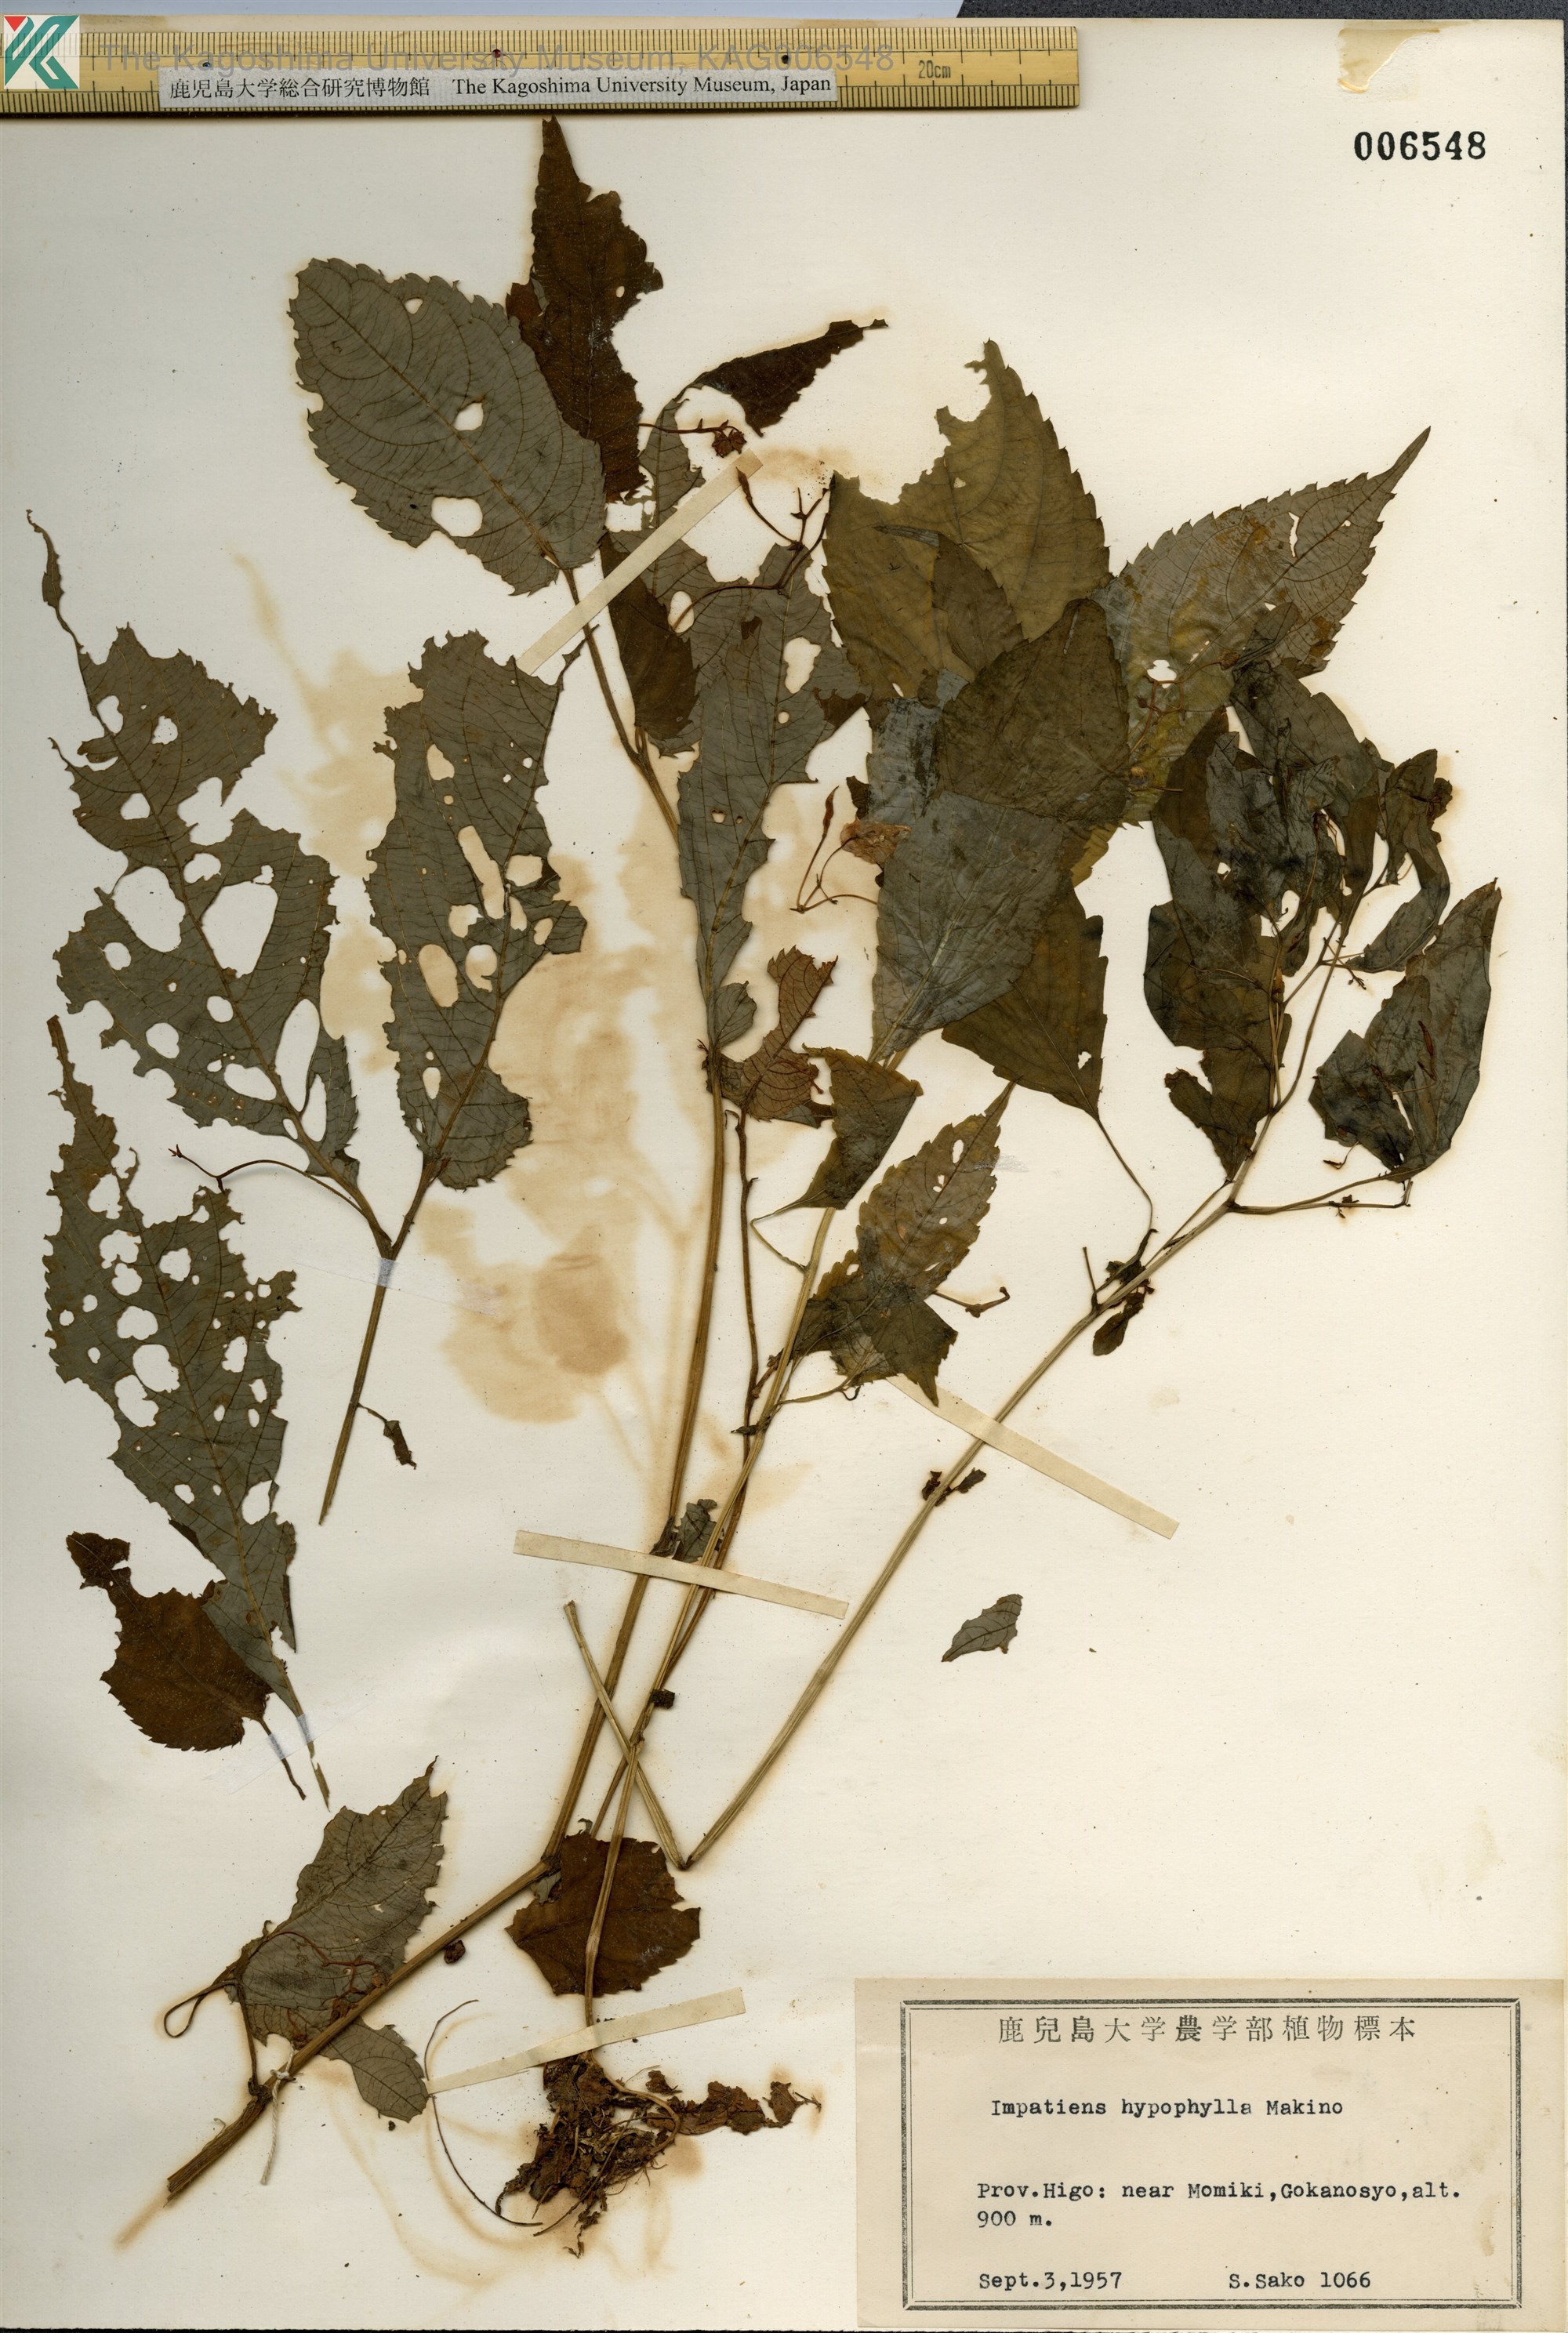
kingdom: Plantae
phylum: Tracheophyta
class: Magnoliopsida
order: Ericales
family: Balsaminaceae
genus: Impatiens
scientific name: Impatiens hypophylla
